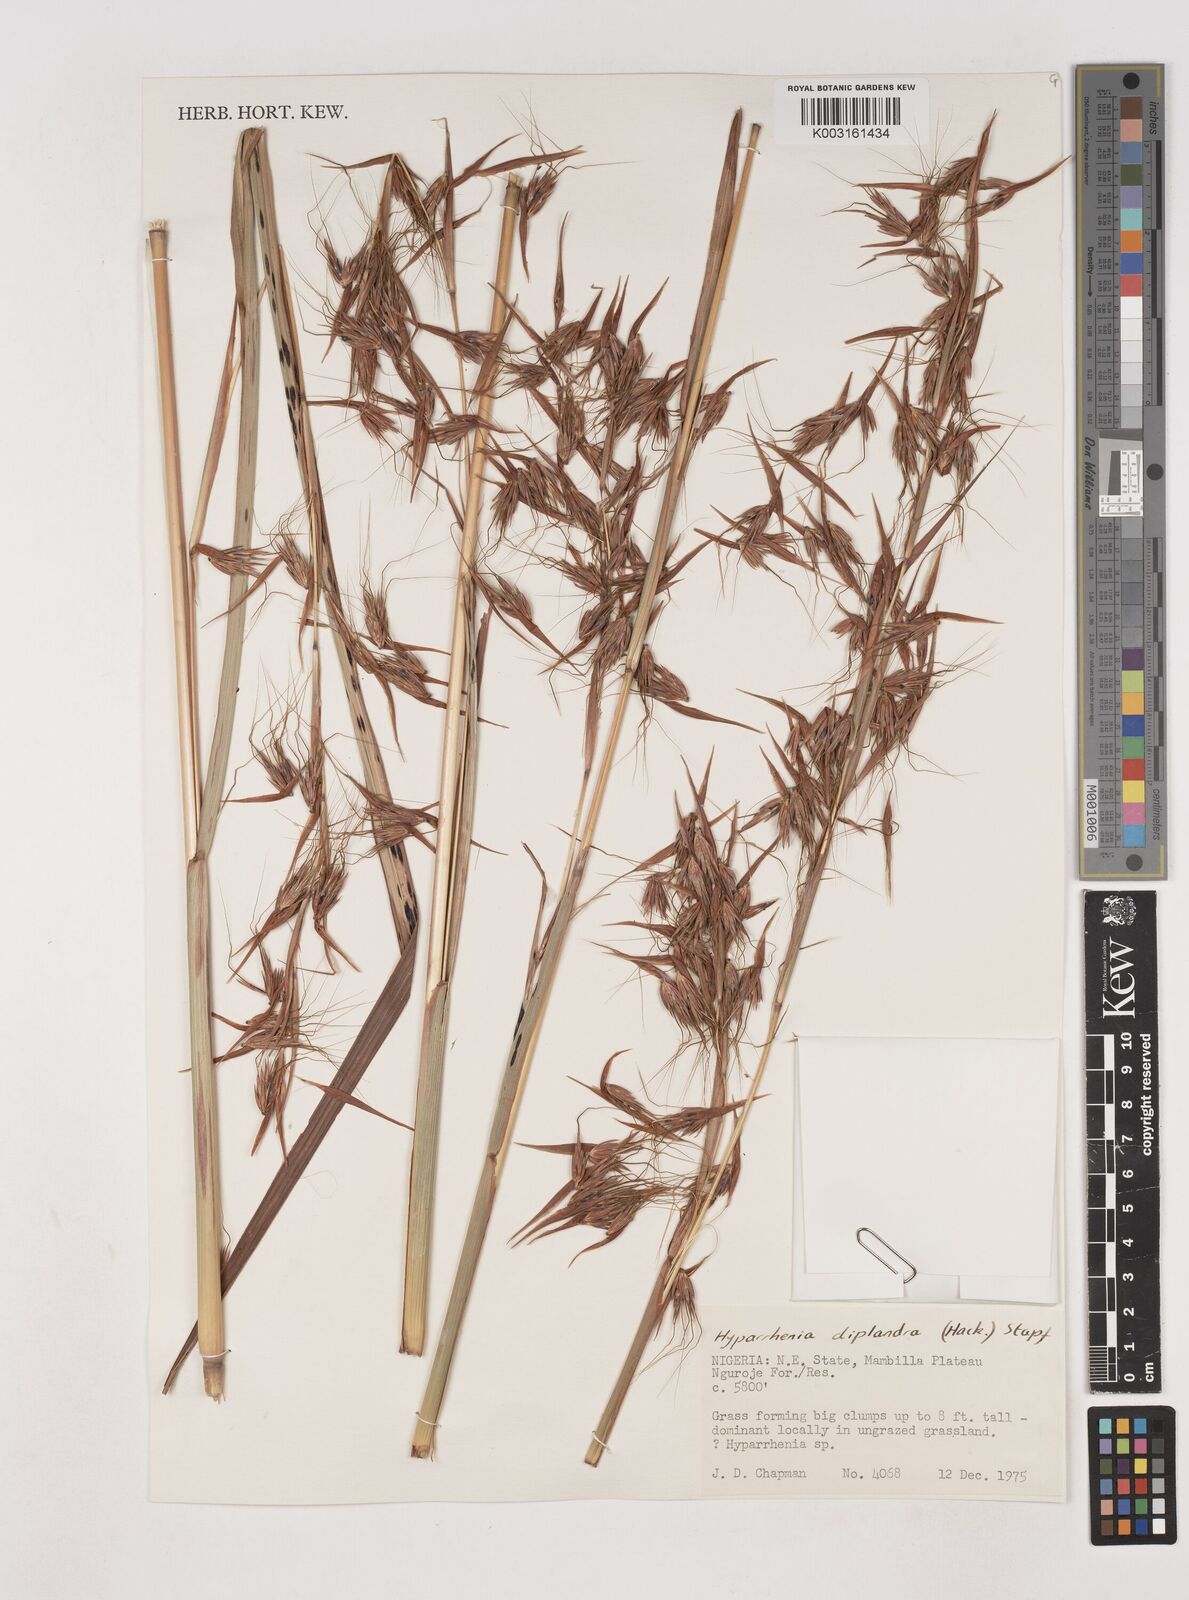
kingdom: Plantae
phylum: Tracheophyta
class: Liliopsida
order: Poales
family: Poaceae
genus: Hyparrhenia
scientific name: Hyparrhenia diplandra
